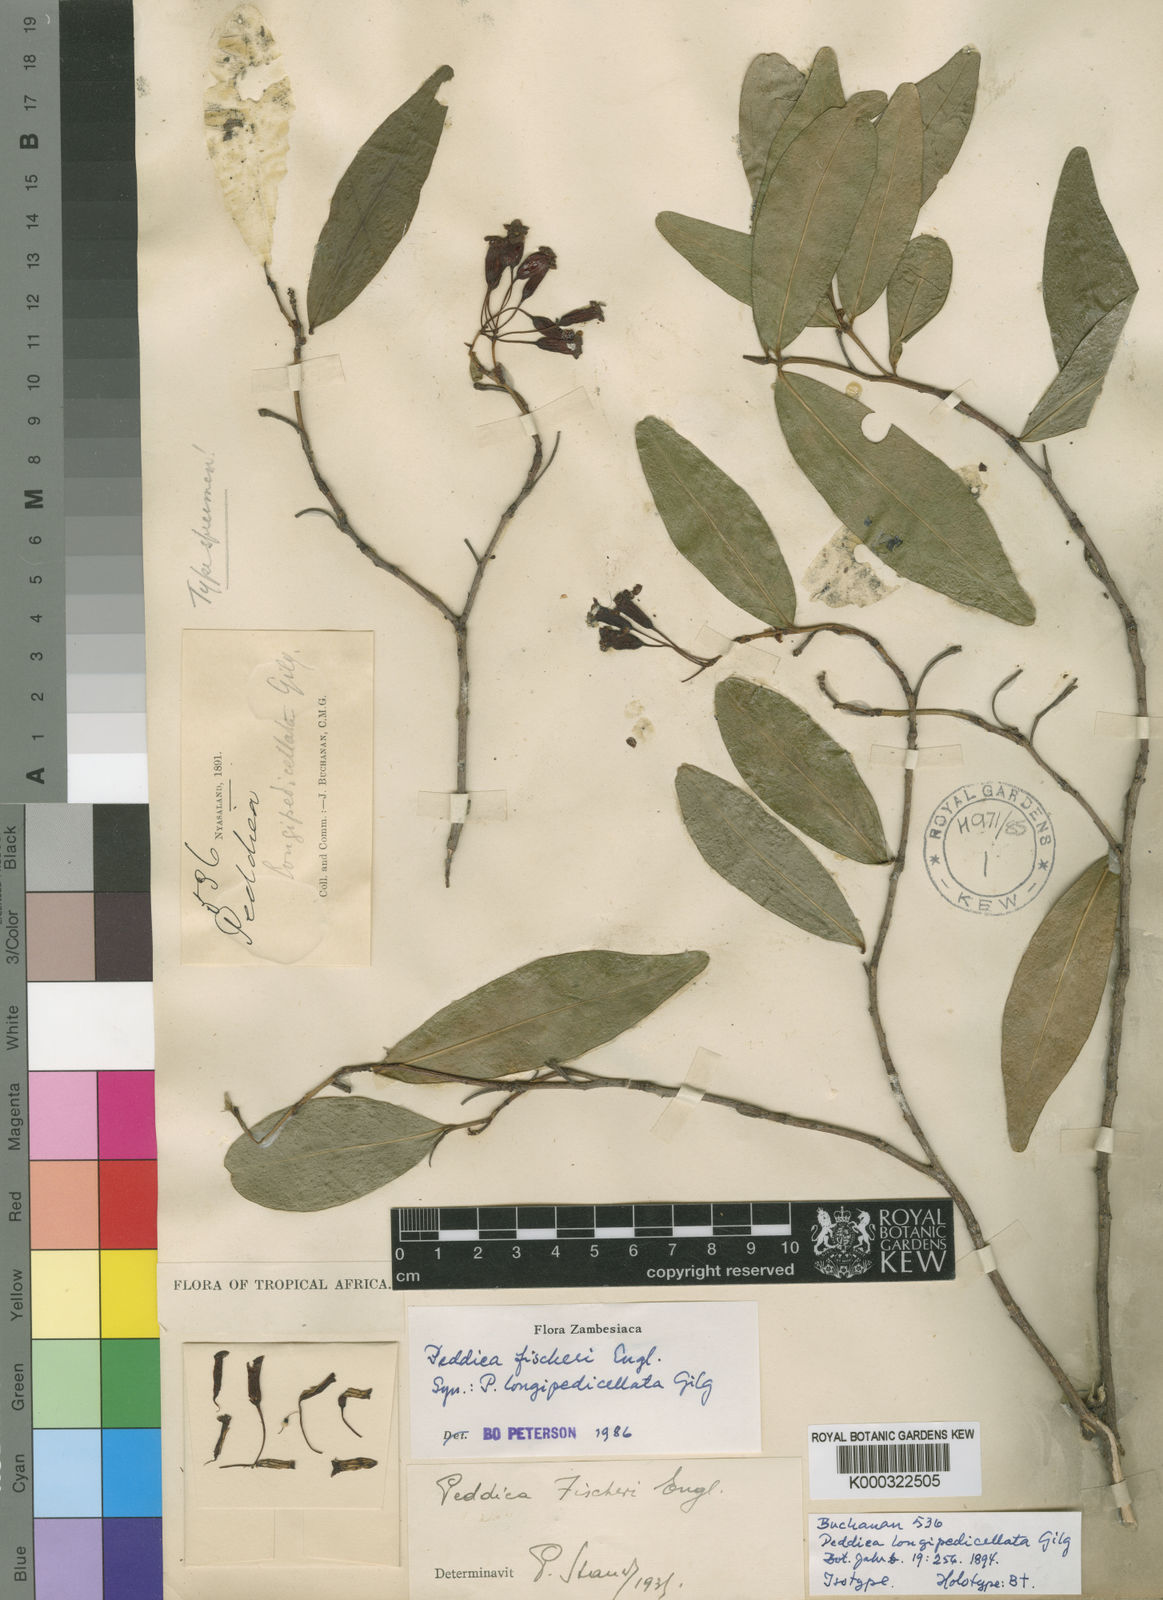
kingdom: Plantae
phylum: Tracheophyta
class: Magnoliopsida
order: Malvales
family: Thymelaeaceae
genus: Peddiea
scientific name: Peddiea fischeri
